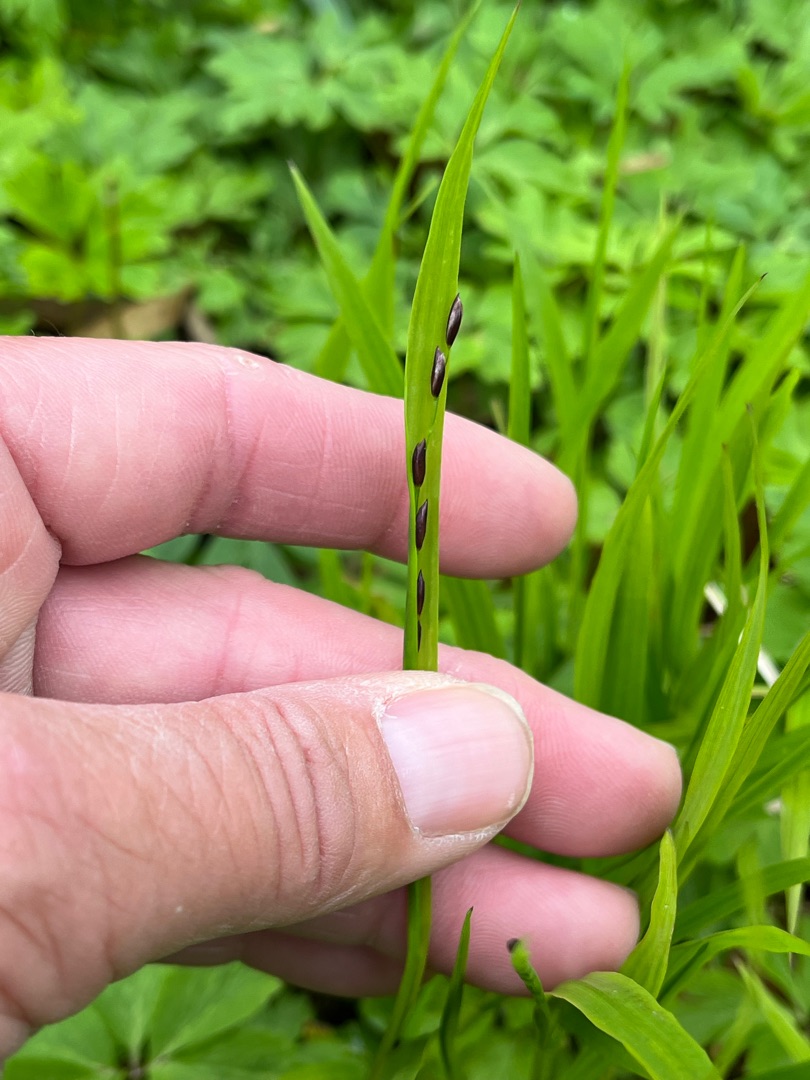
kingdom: Plantae
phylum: Tracheophyta
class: Liliopsida
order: Poales
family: Poaceae
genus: Melica
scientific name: Melica uniflora
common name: Enblomstret flitteraks
